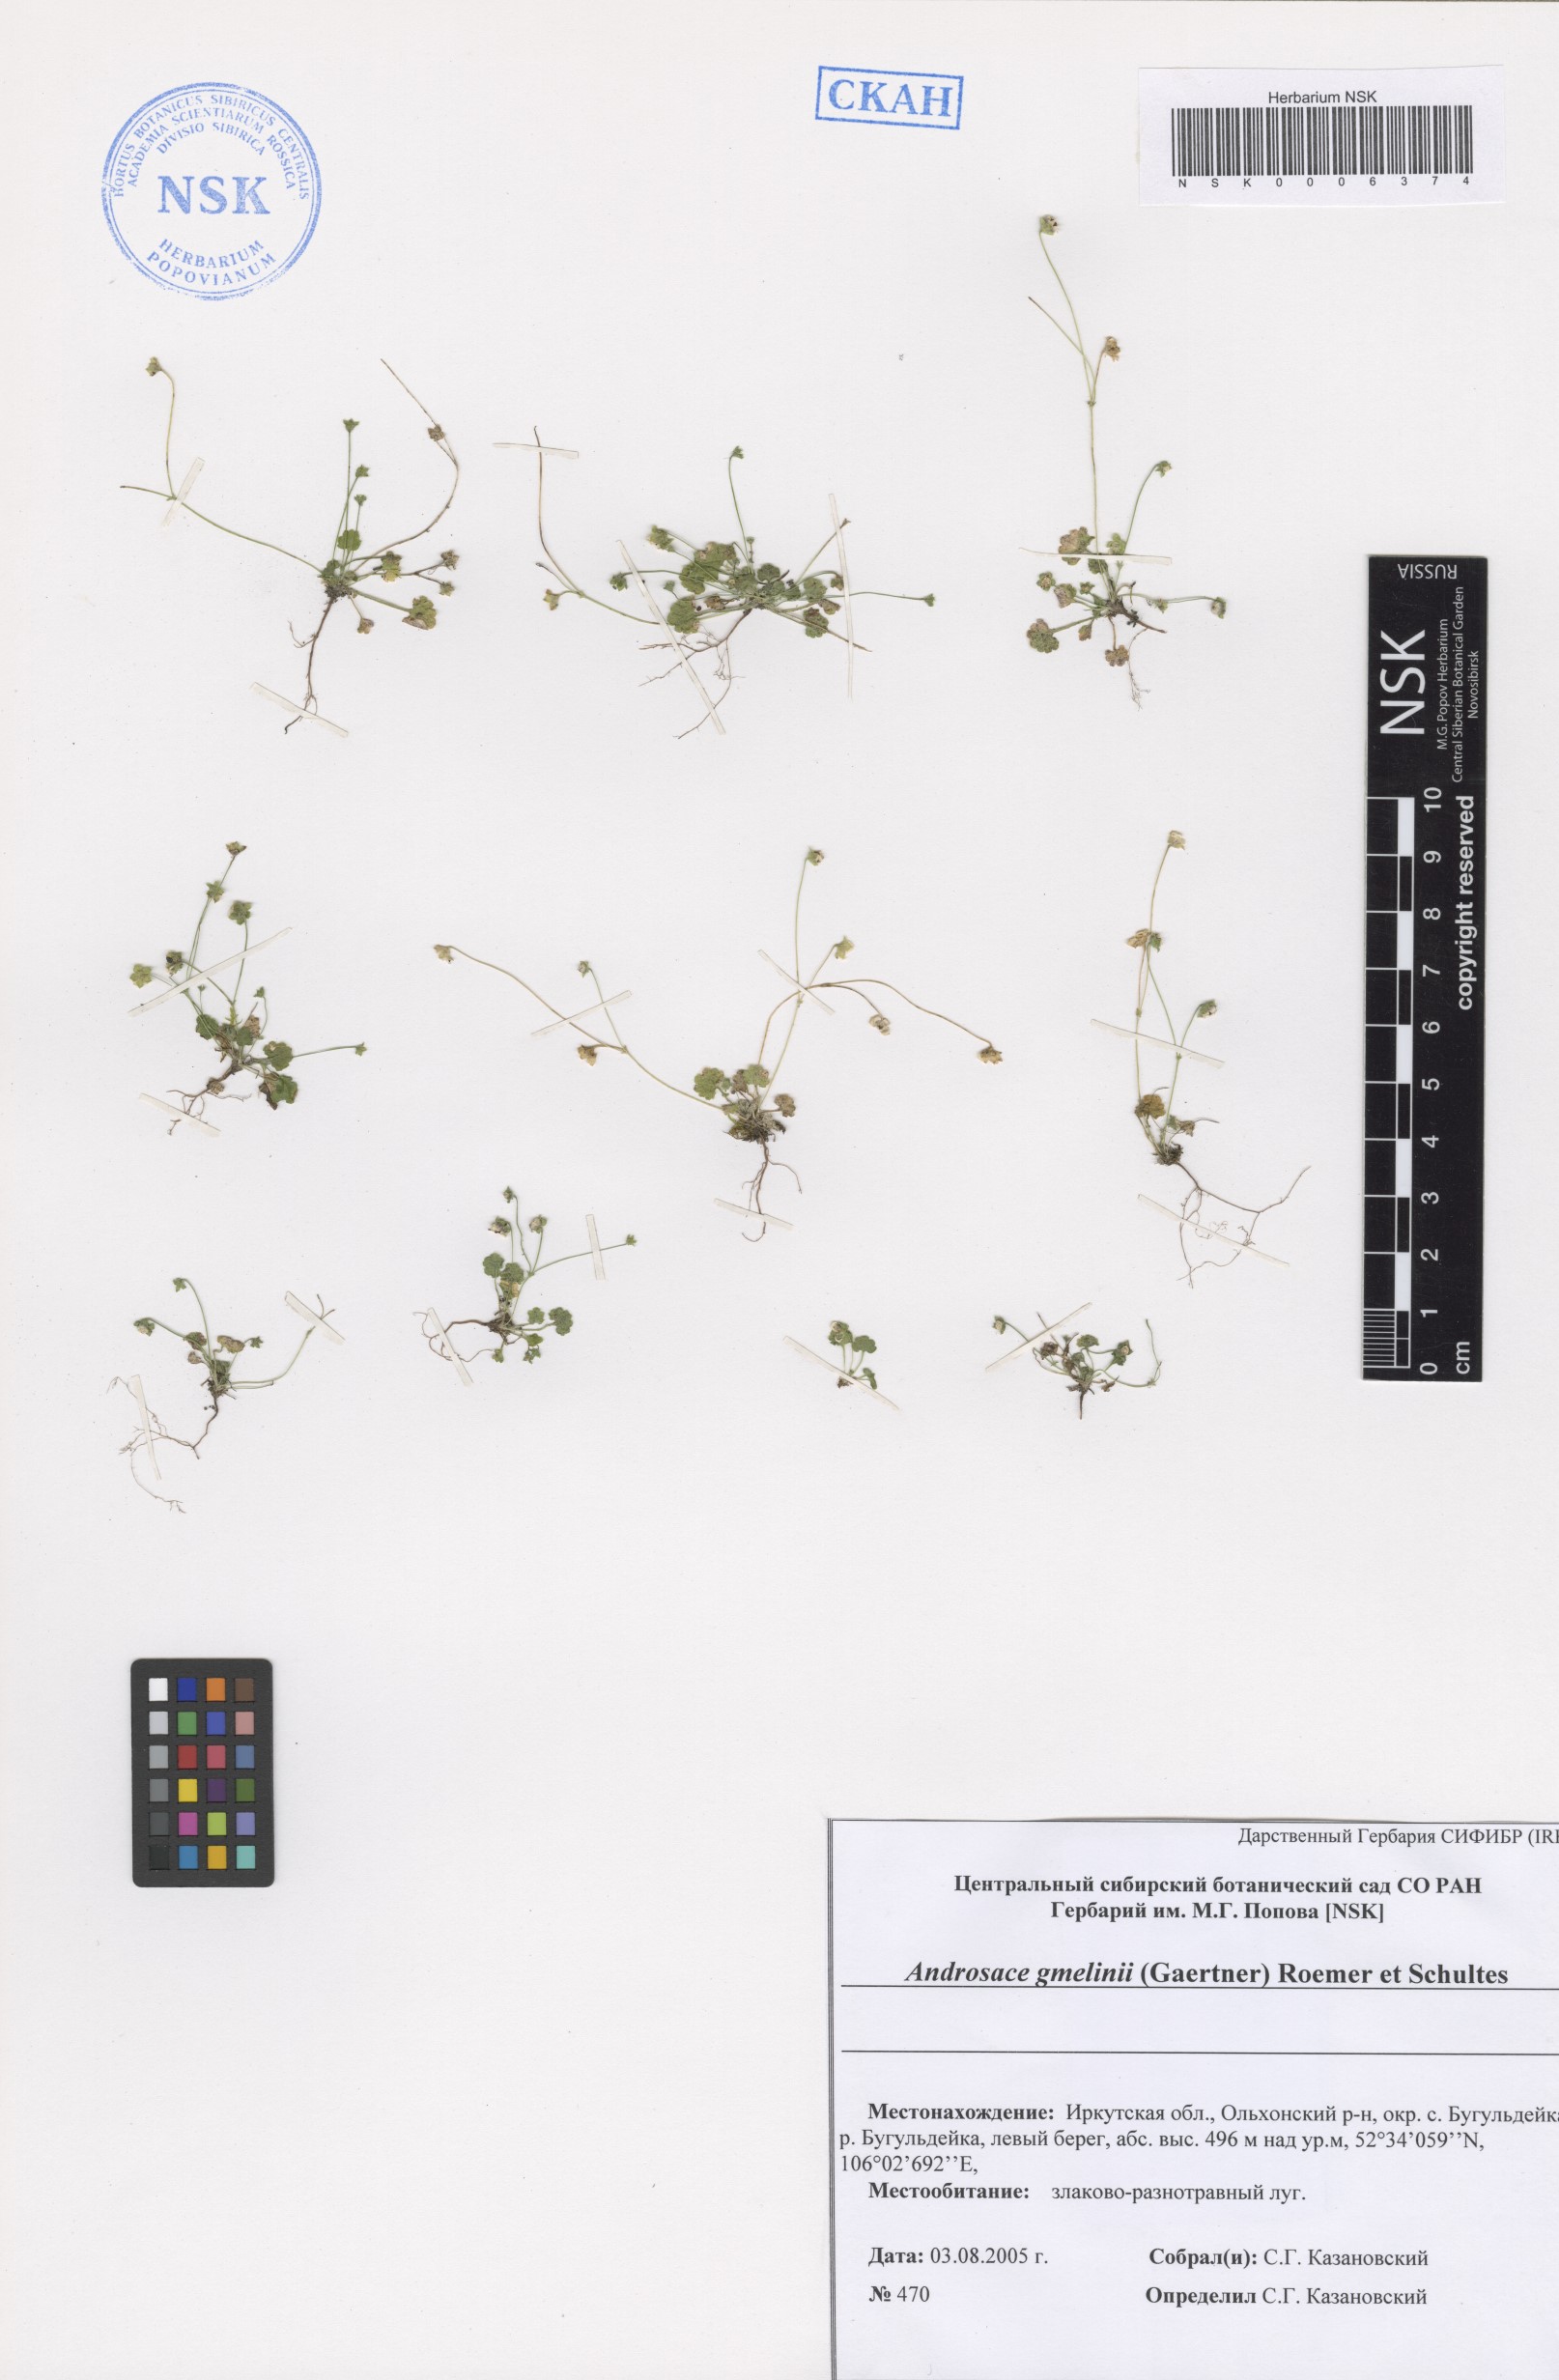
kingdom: Plantae
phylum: Tracheophyta
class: Magnoliopsida
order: Ericales
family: Primulaceae
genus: Androsace
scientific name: Androsace gmelinii
